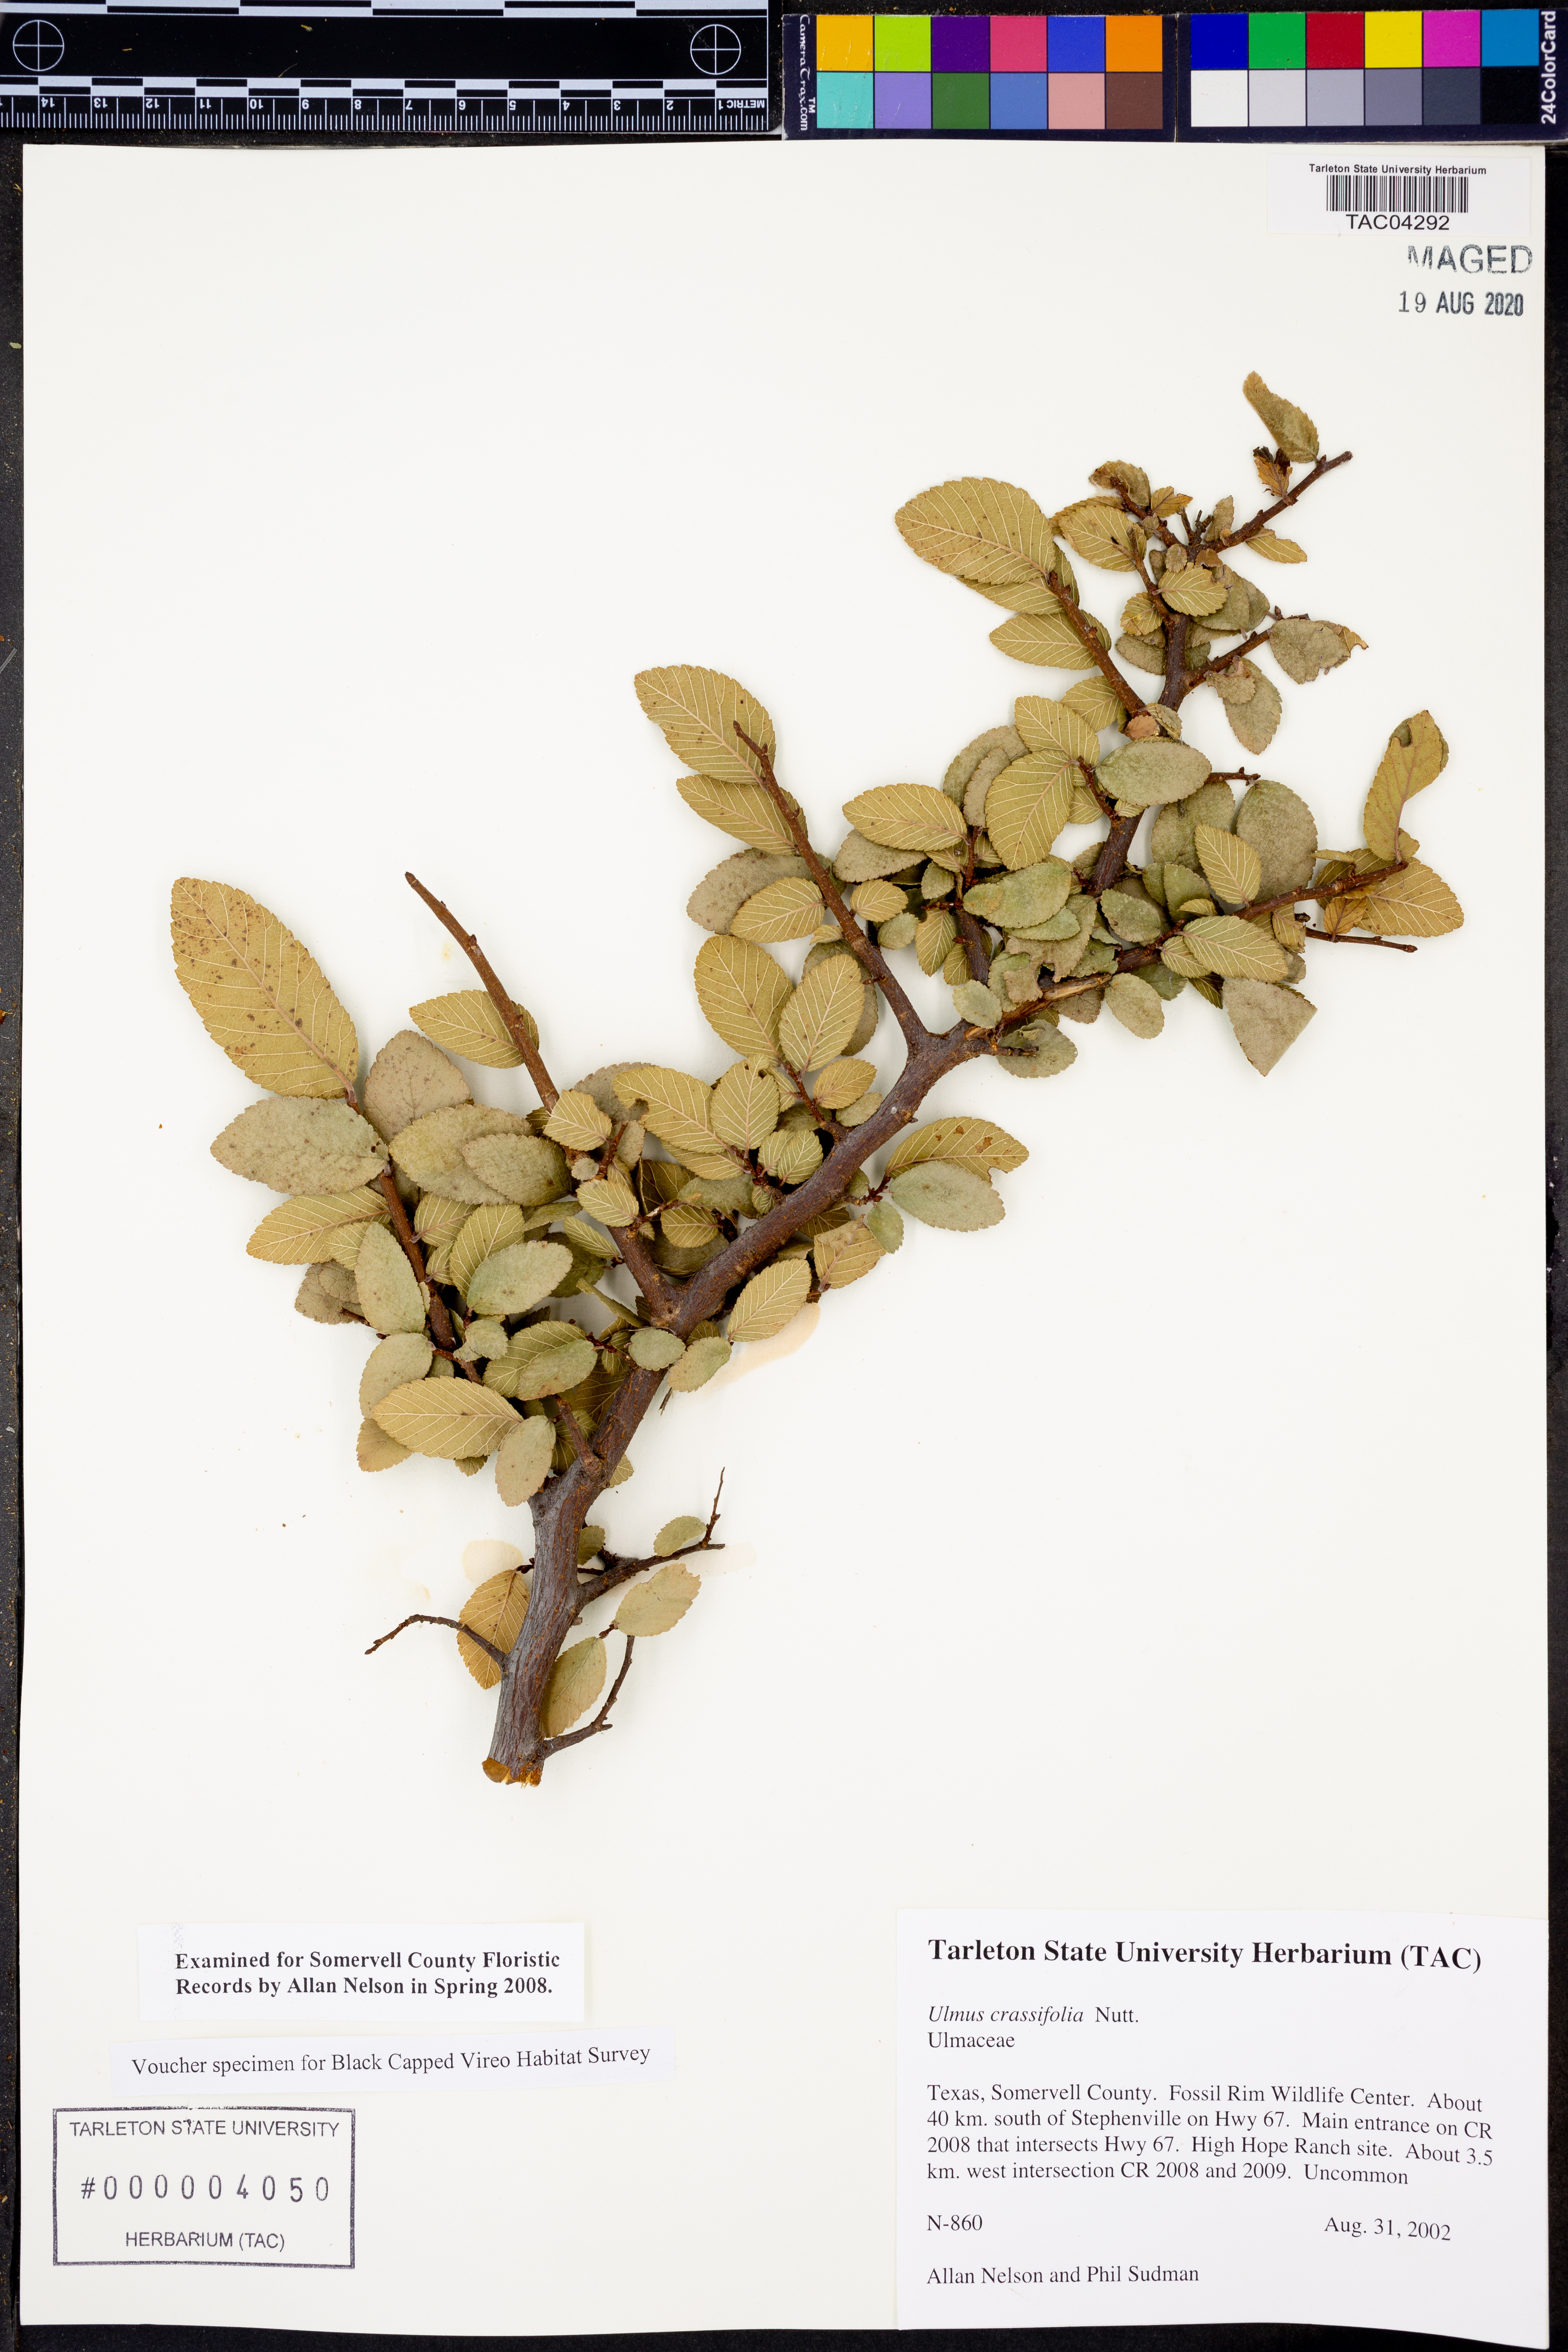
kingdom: Plantae
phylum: Tracheophyta
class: Magnoliopsida
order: Rosales
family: Ulmaceae
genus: Ulmus
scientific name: Ulmus crassifolia
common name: Basket elm
